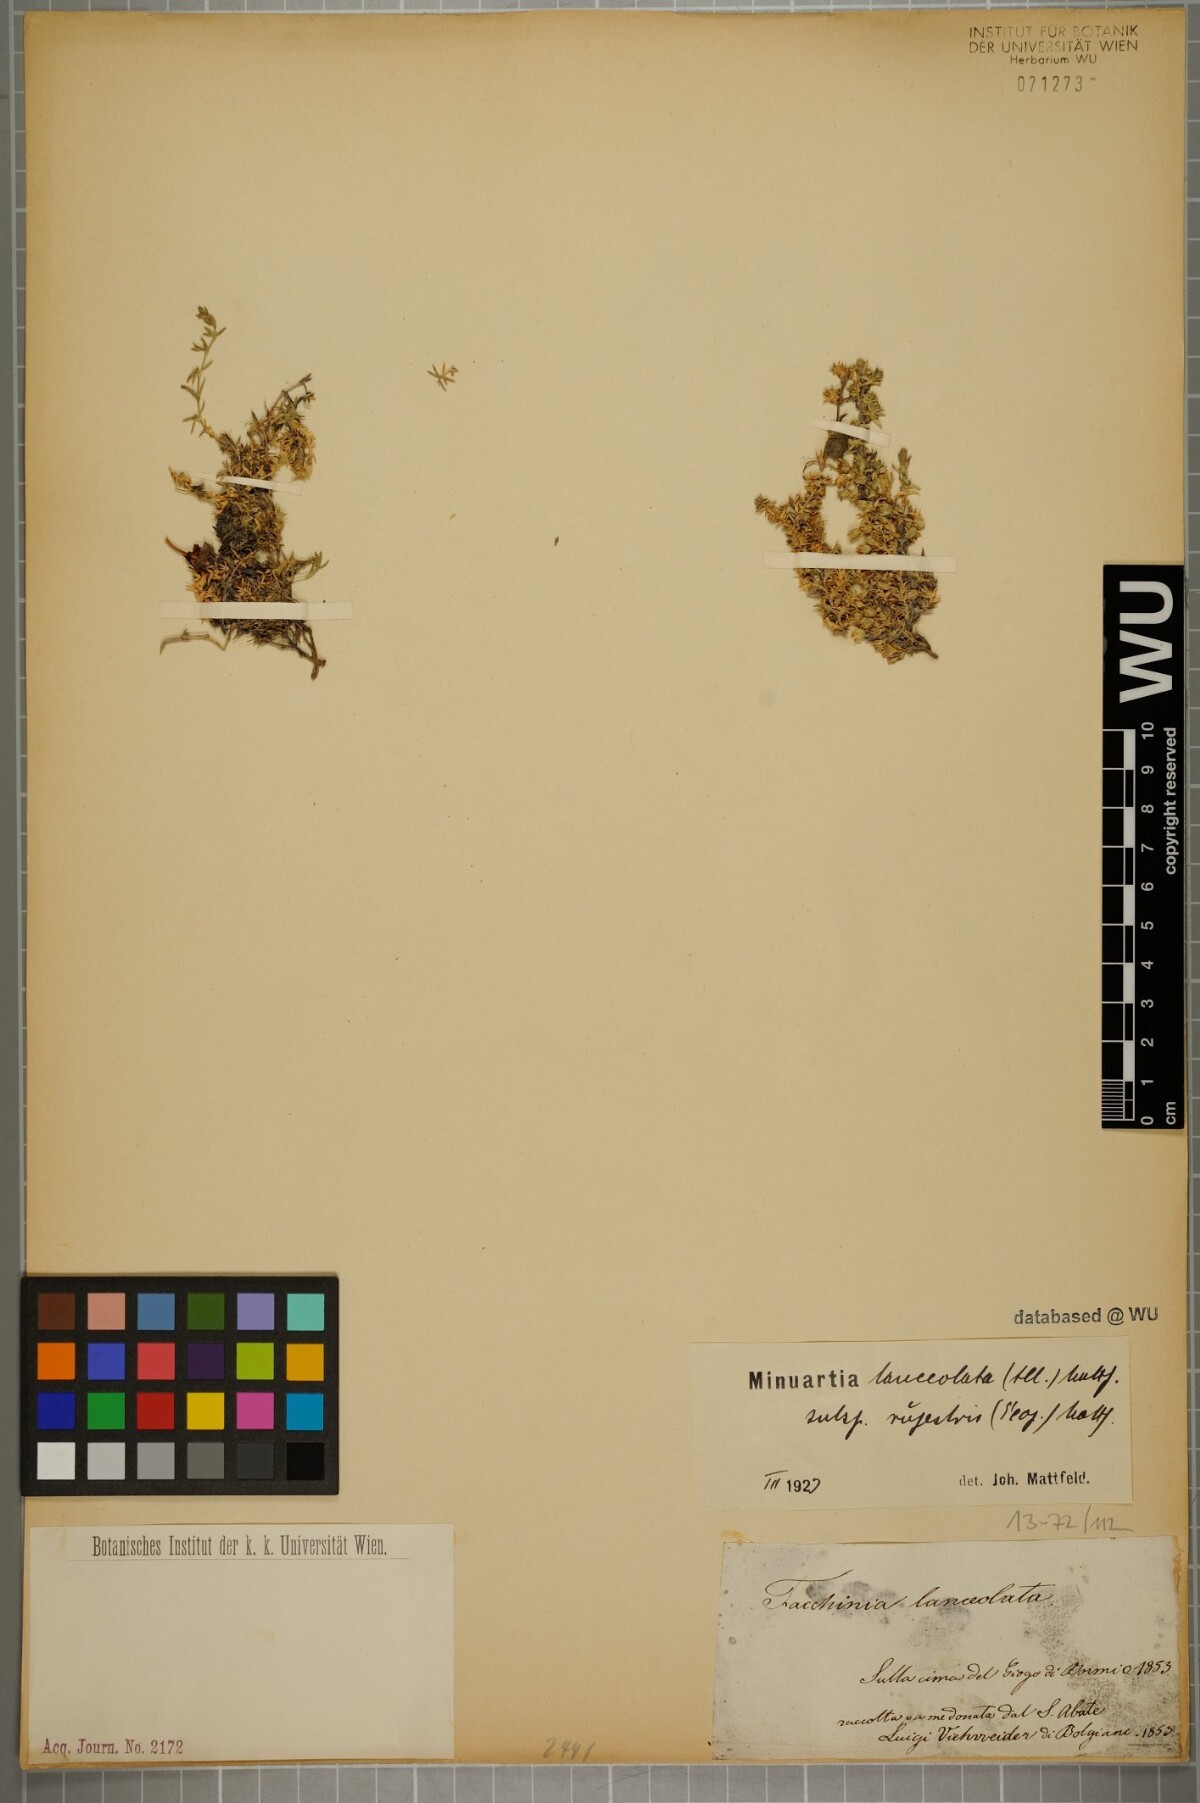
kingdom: Plantae
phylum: Tracheophyta
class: Magnoliopsida
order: Caryophyllales
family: Caryophyllaceae
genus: Facchinia
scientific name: Facchinia rupestris
